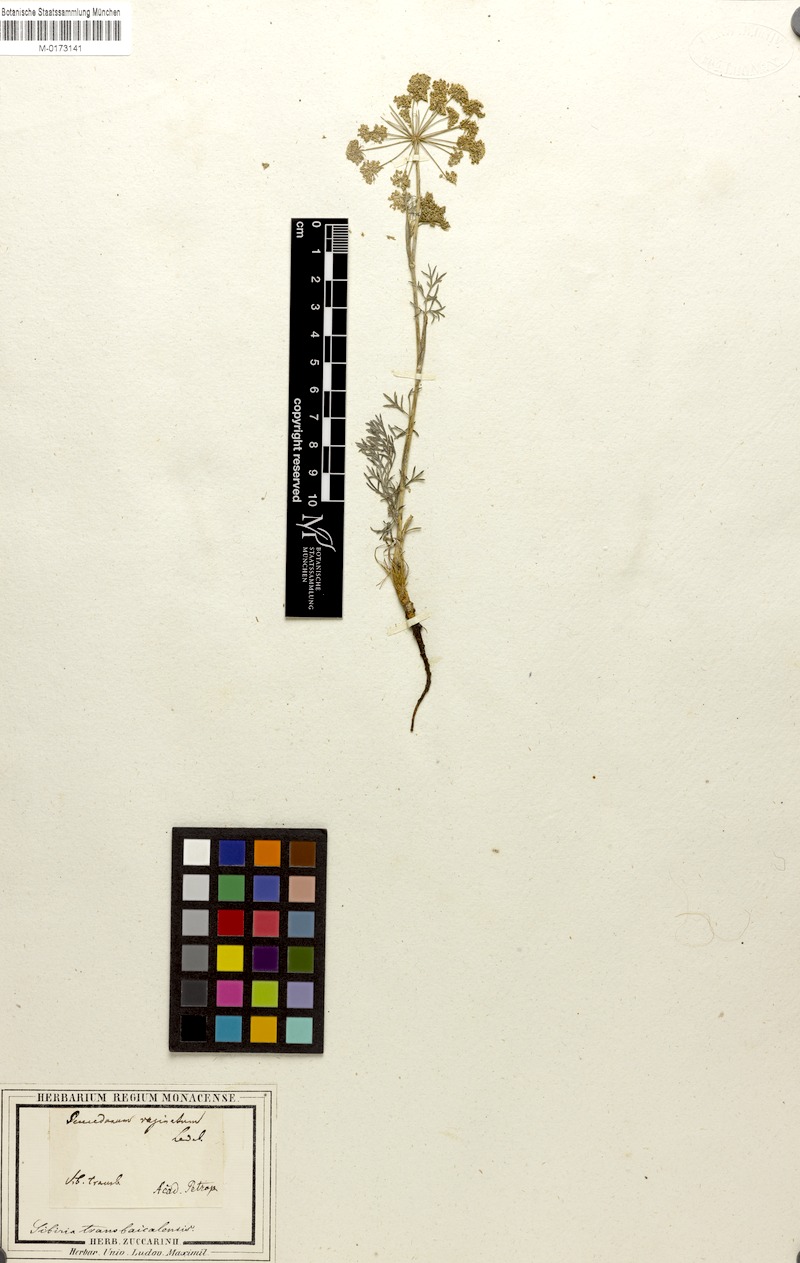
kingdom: Plantae
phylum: Tracheophyta
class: Magnoliopsida
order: Apiales
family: Apiaceae
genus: Peucedanum
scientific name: Peucedanum vaginatum
